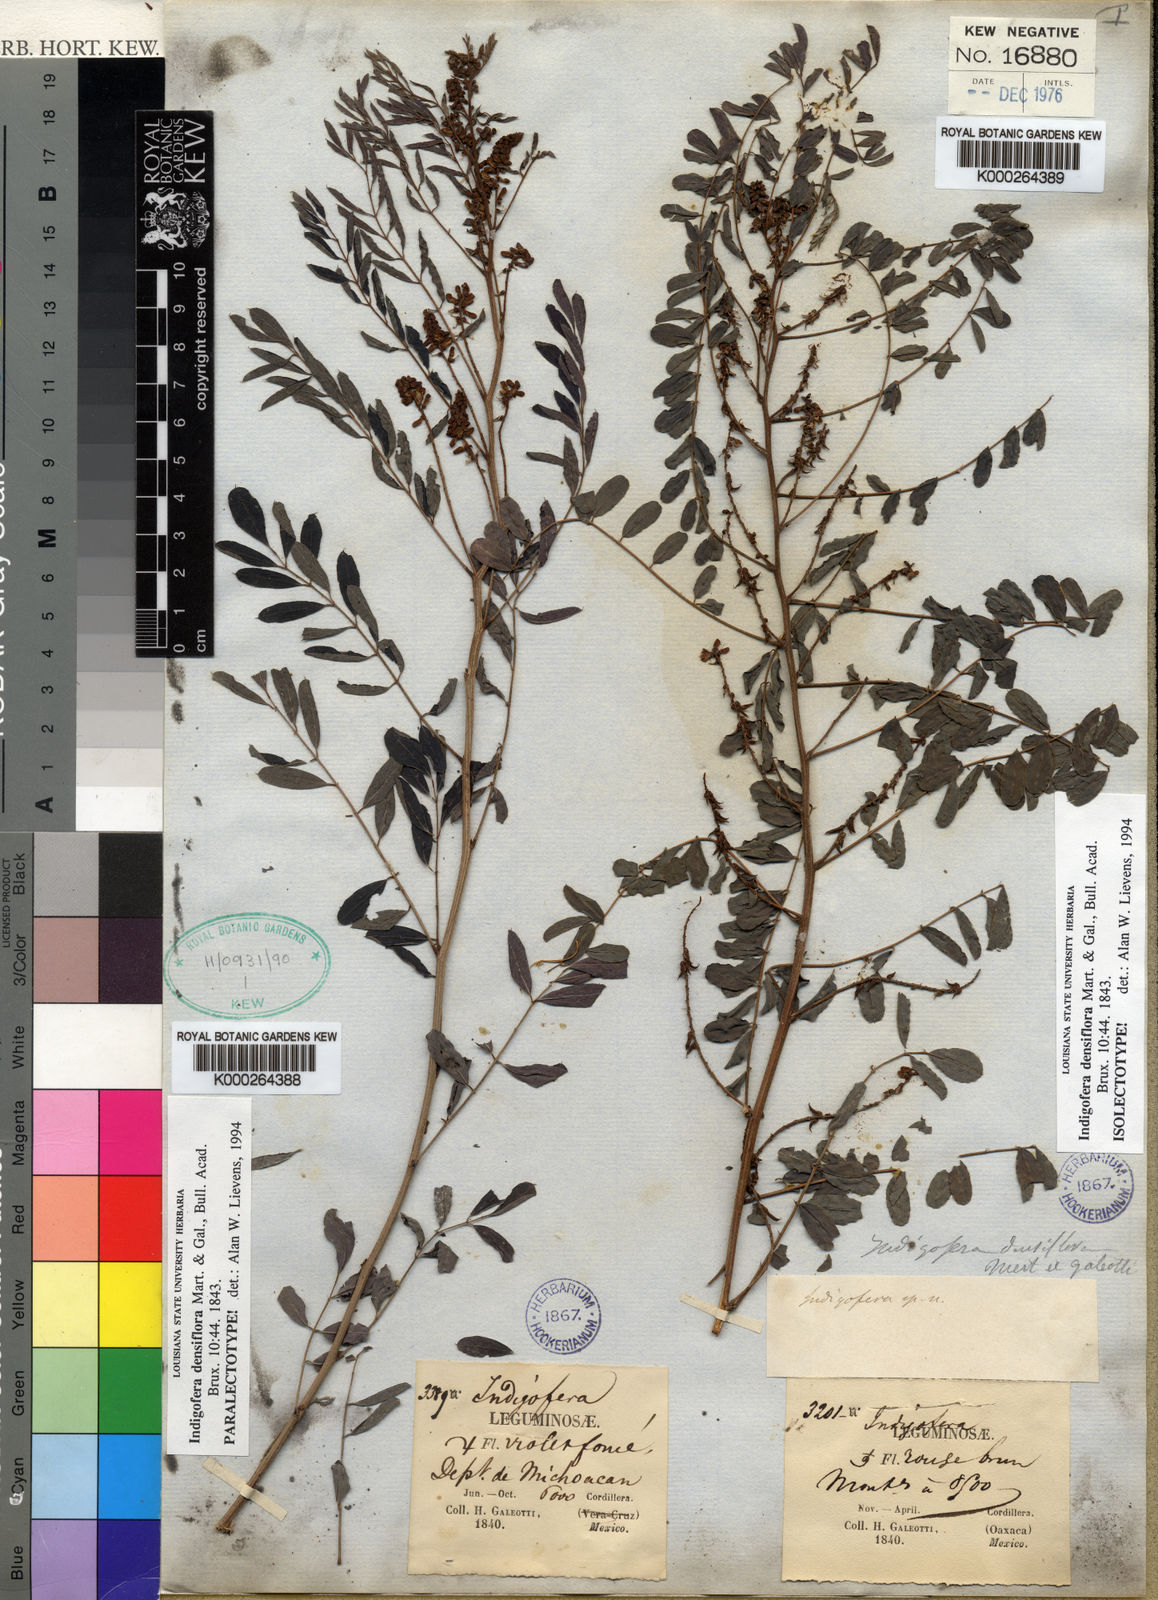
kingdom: Plantae
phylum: Tracheophyta
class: Magnoliopsida
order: Fabales
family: Fabaceae
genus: Indigofera
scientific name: Indigofera densiflora
